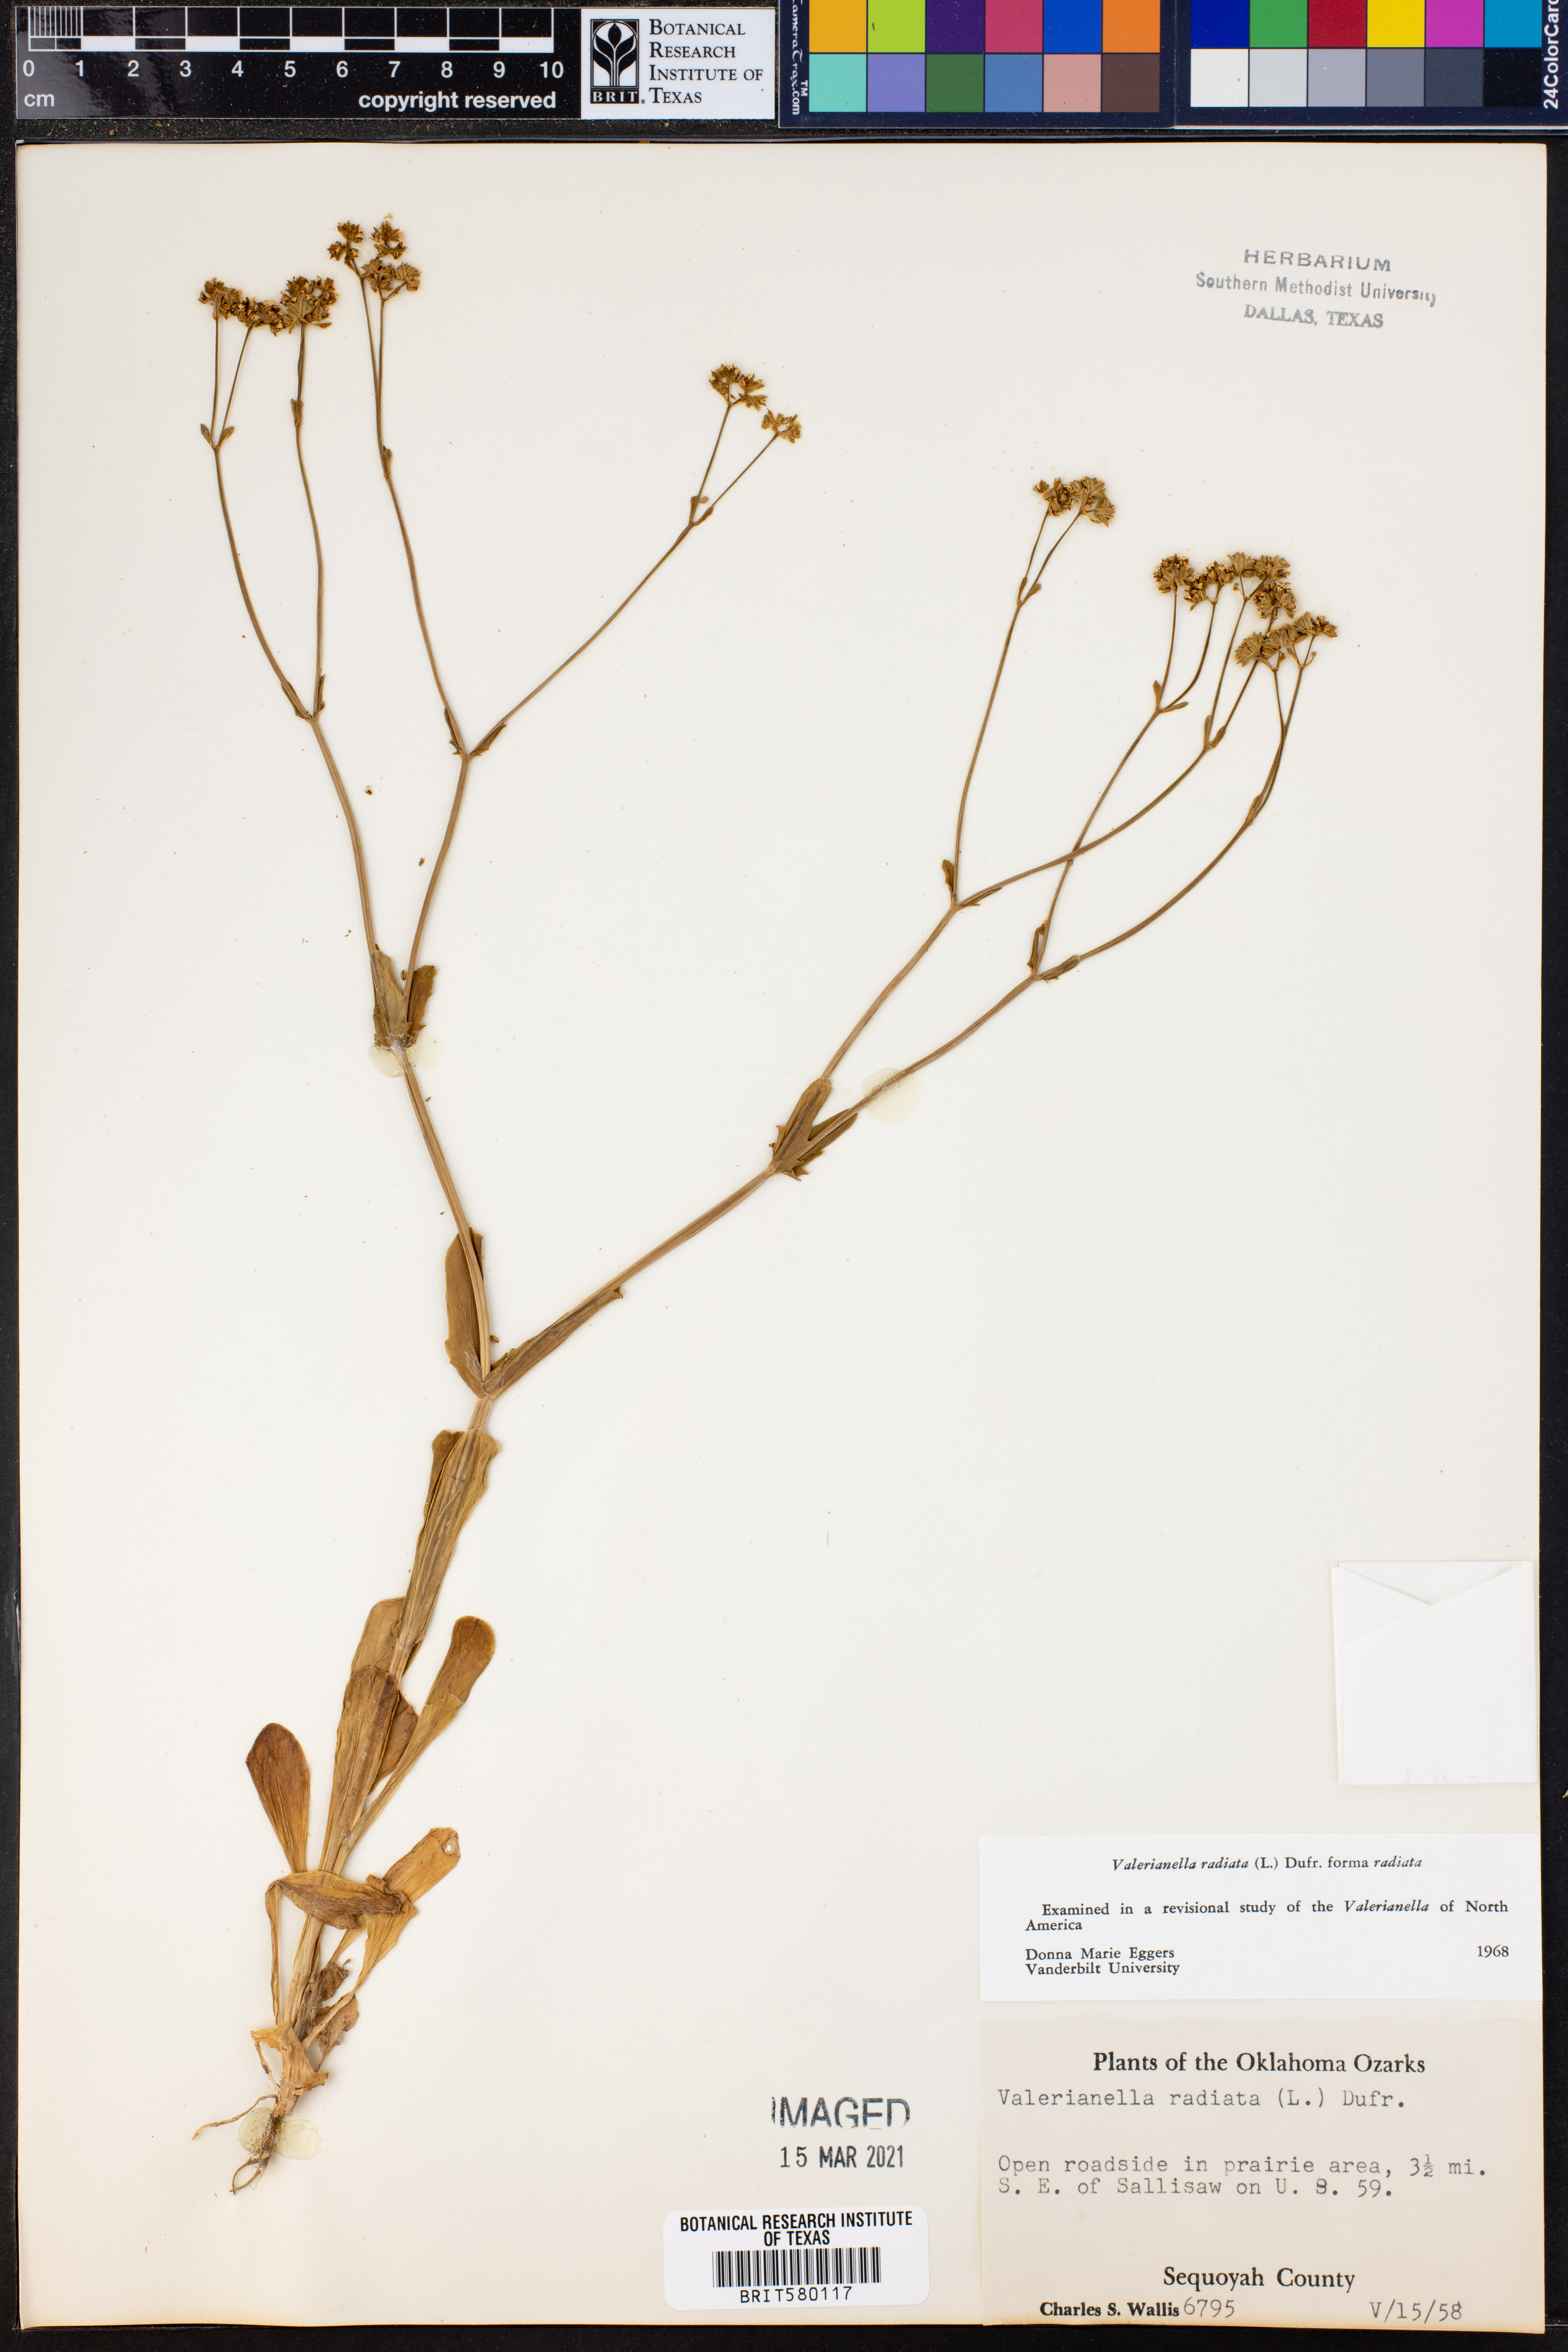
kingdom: Plantae
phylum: Tracheophyta
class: Magnoliopsida
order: Dipsacales
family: Caprifoliaceae
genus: Valerianella
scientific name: Valerianella radiata
